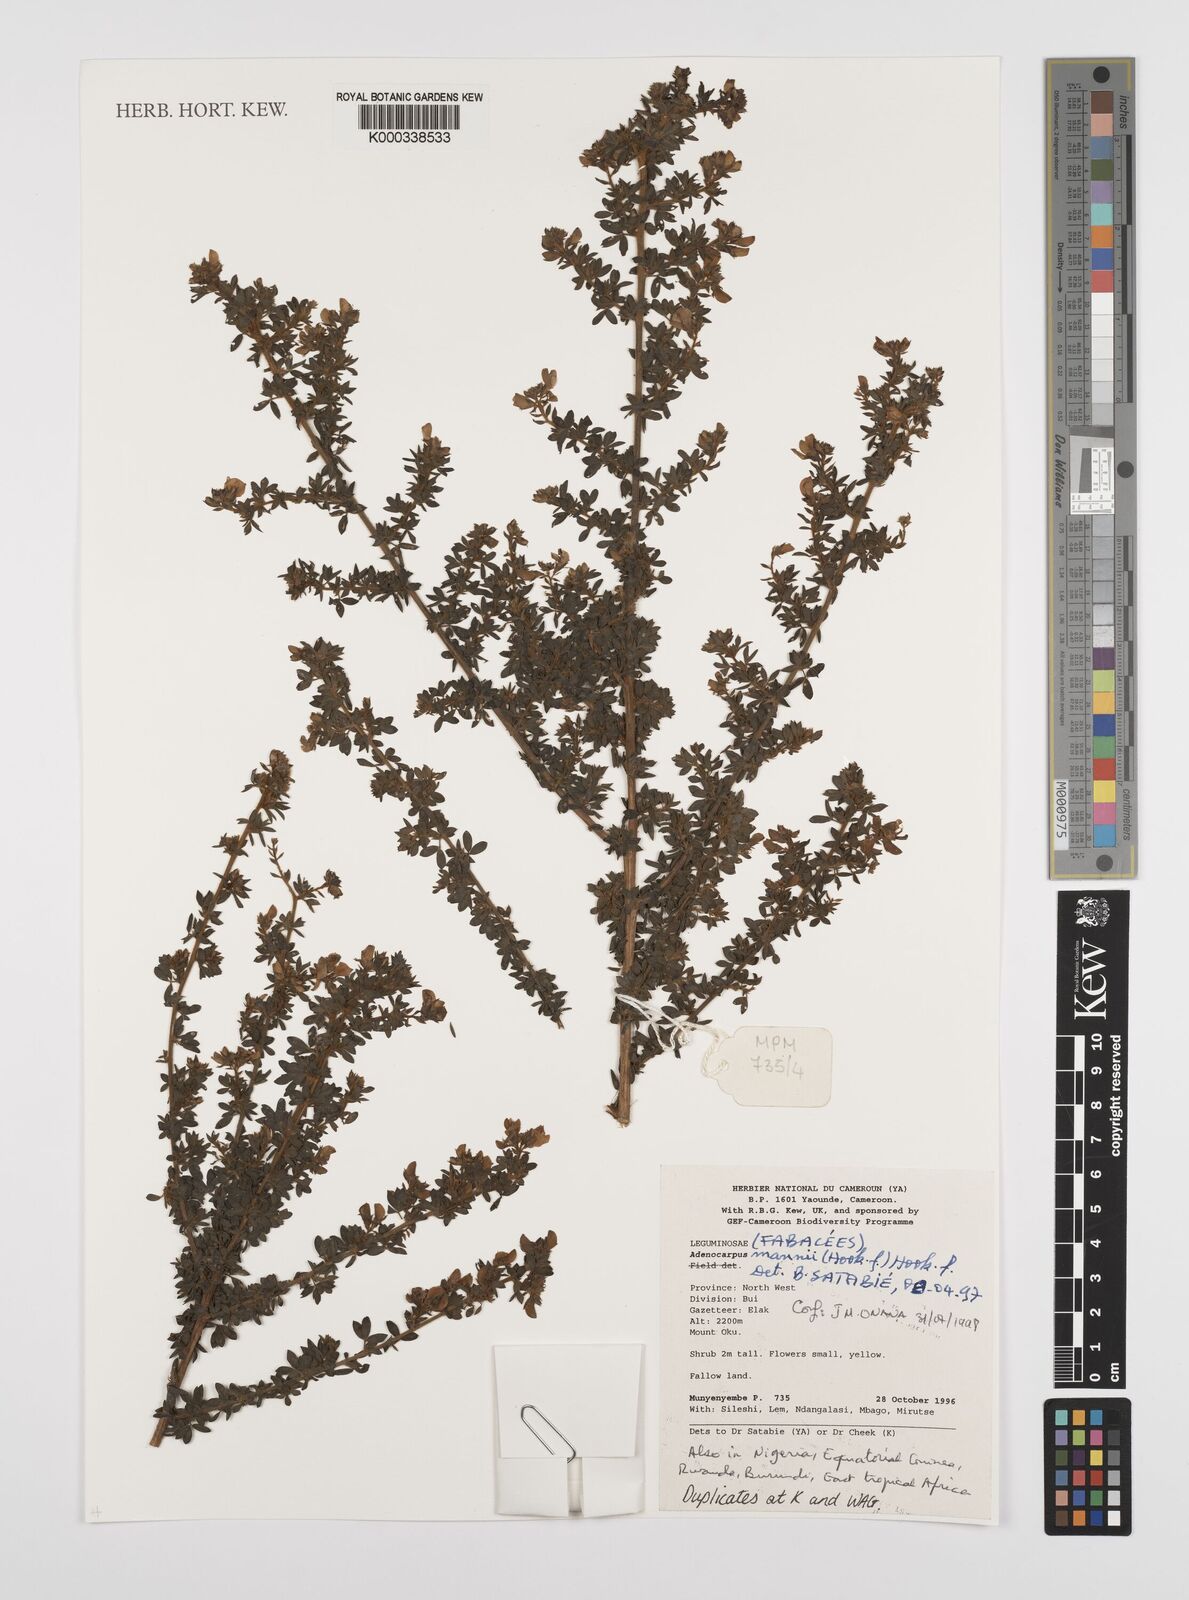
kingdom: Plantae
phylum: Tracheophyta
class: Magnoliopsida
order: Fabales
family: Fabaceae
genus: Adenocarpus
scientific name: Adenocarpus mannii
